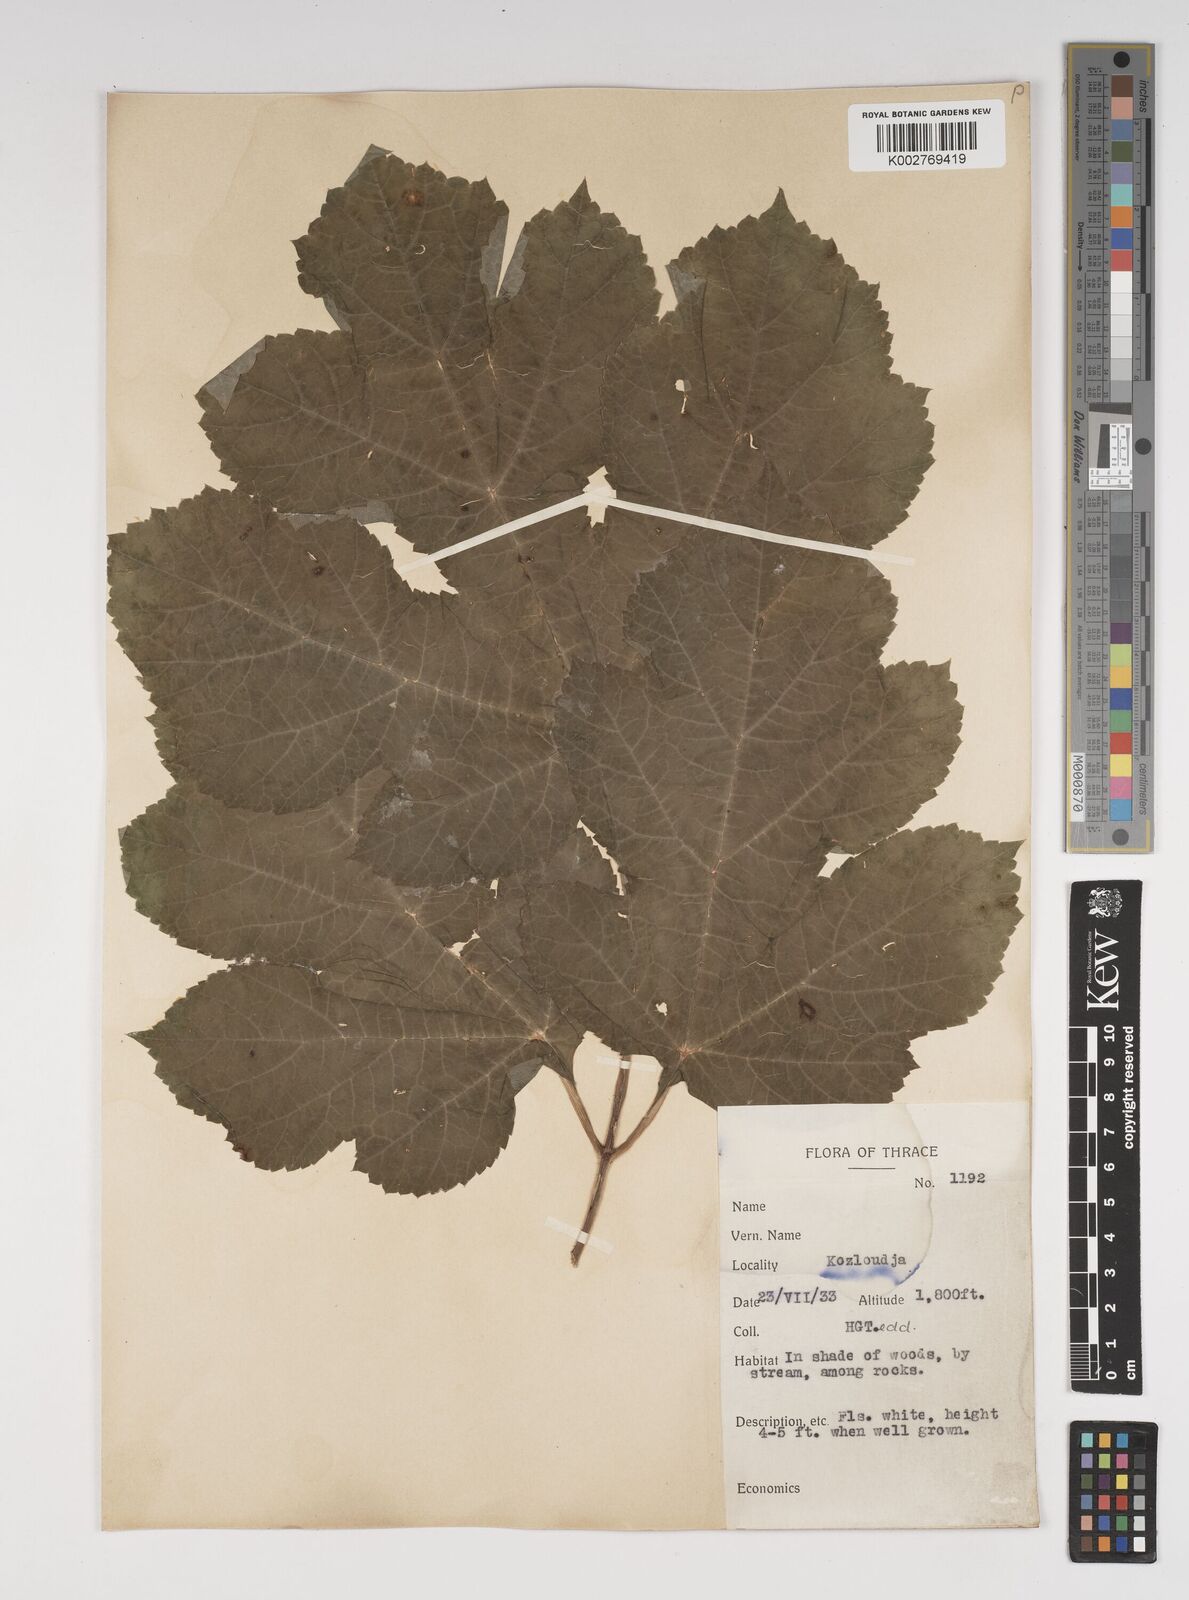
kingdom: Plantae
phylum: Tracheophyta
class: Magnoliopsida
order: Apiales
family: Apiaceae
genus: Heracleum
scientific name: Heracleum sphondylium
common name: Hogweed
